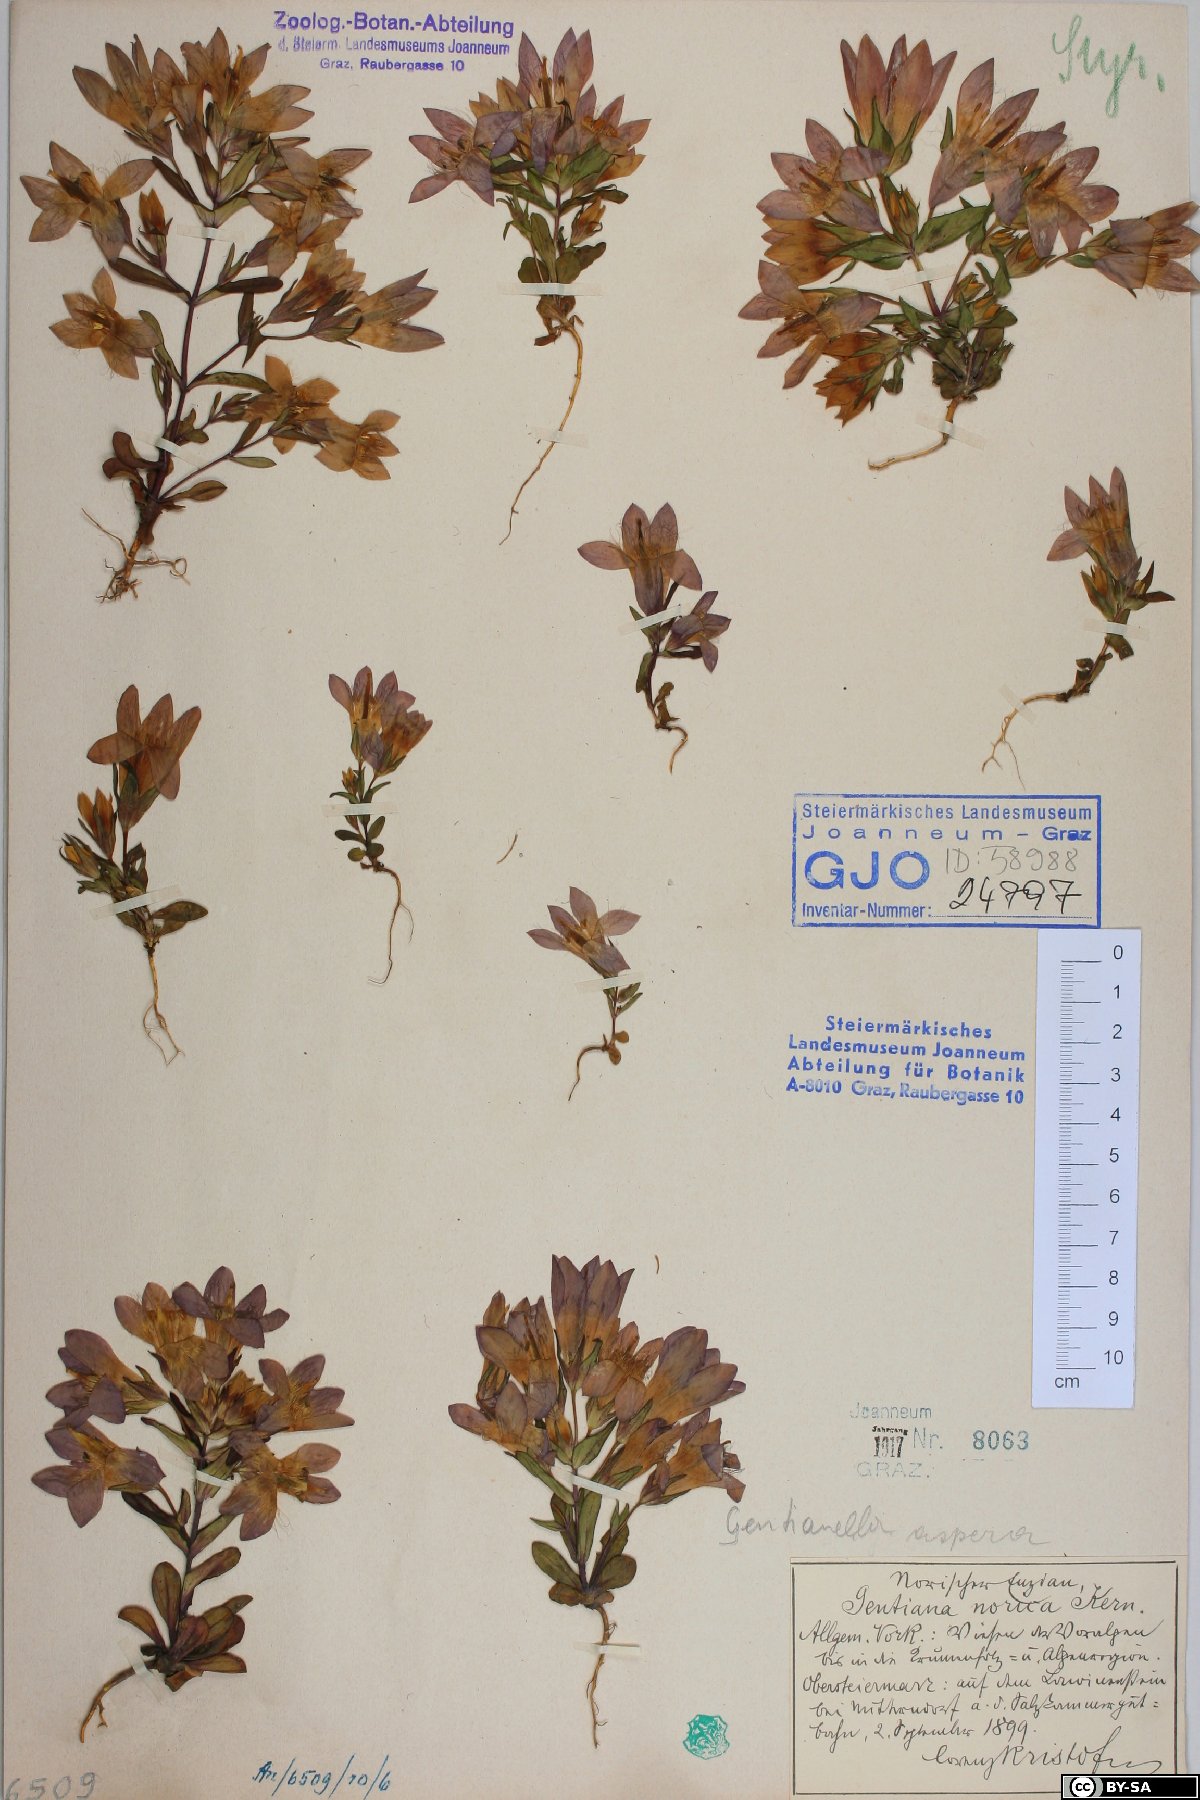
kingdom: Plantae
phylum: Tracheophyta
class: Magnoliopsida
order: Gentianales
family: Gentianaceae
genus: Gentianella
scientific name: Gentianella obtusifolia
